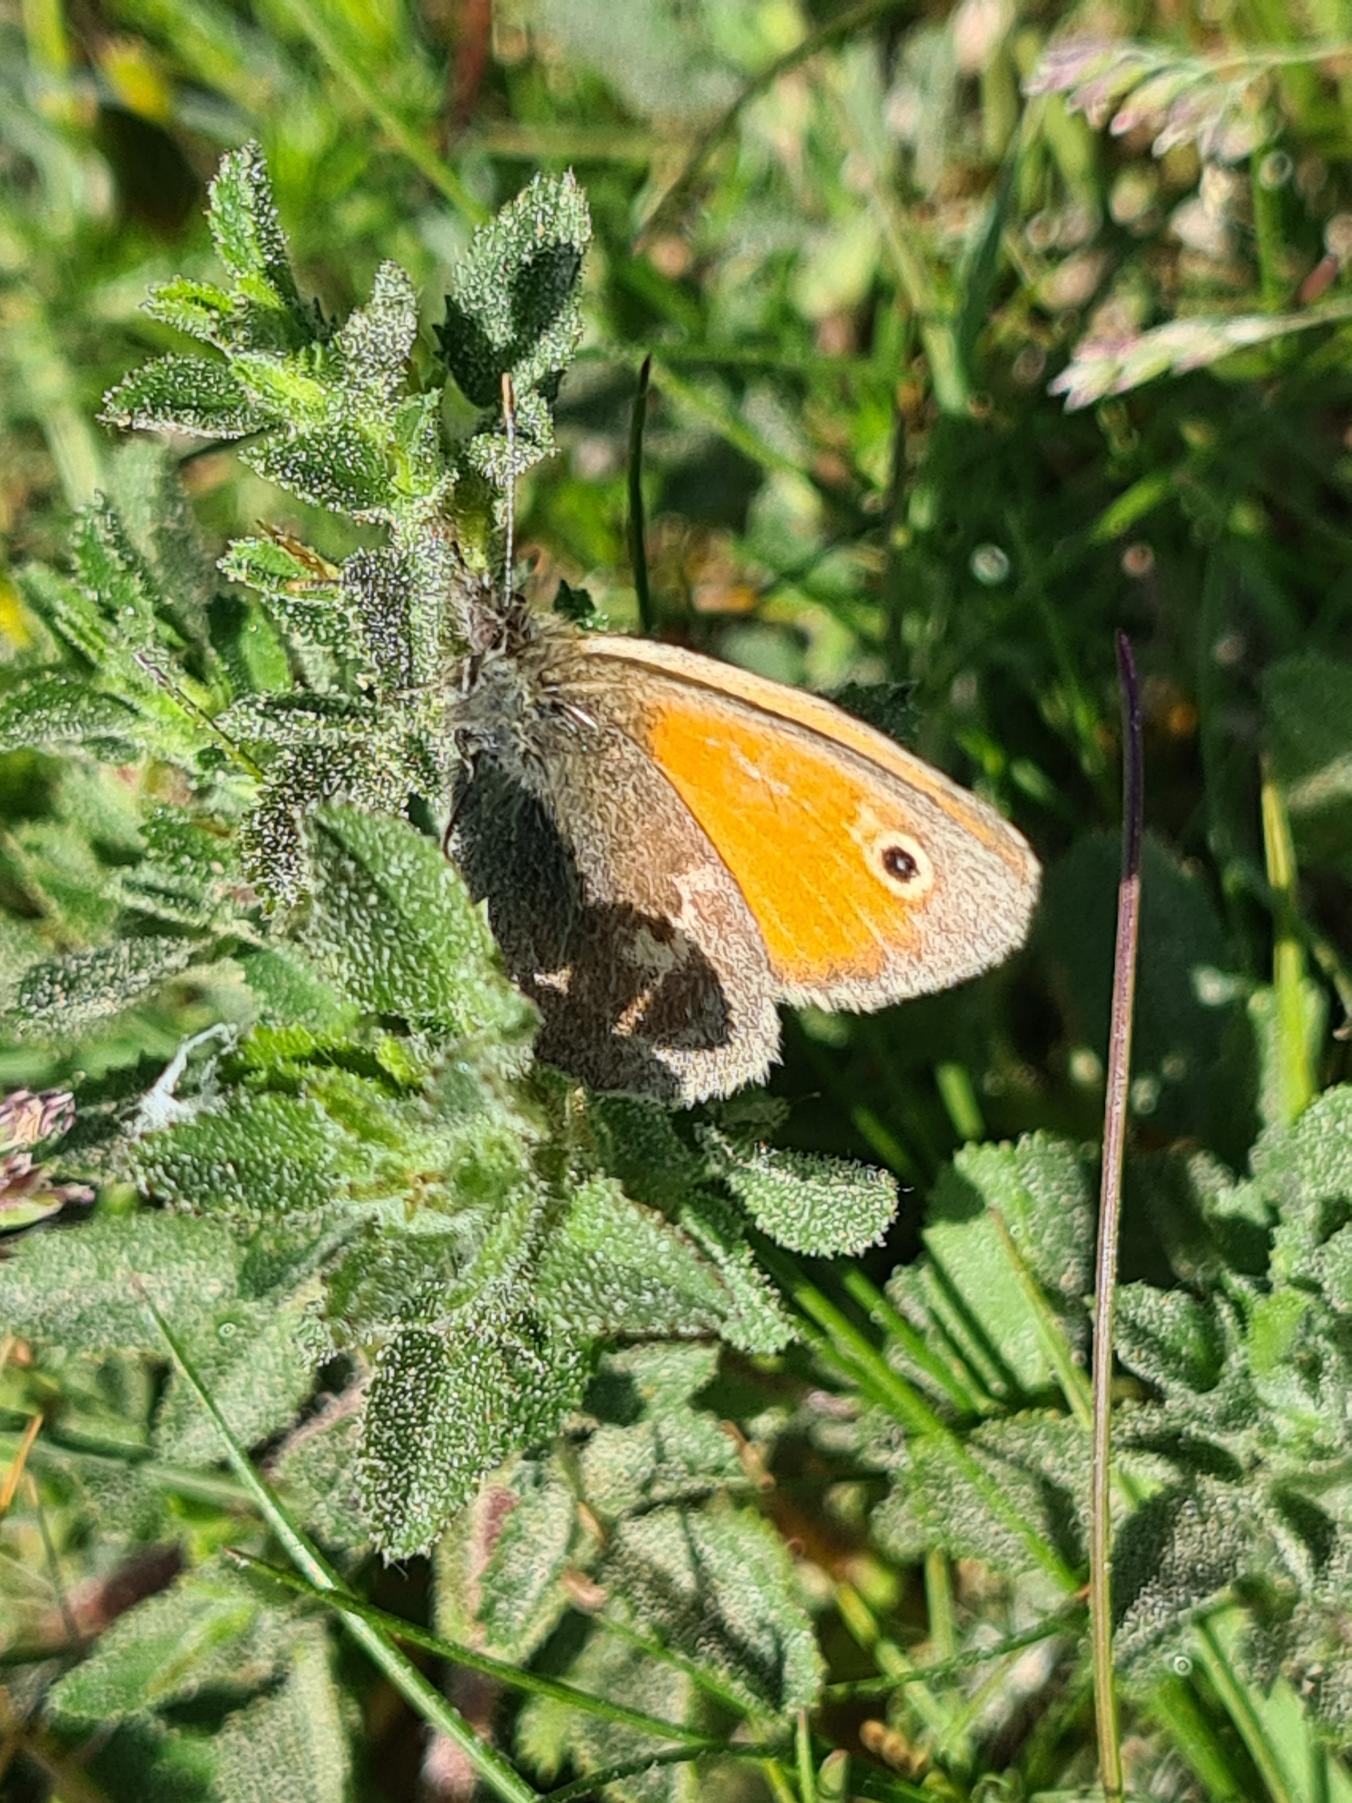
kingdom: Animalia
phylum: Arthropoda
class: Insecta
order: Lepidoptera
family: Nymphalidae
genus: Coenonympha
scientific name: Coenonympha pamphilus
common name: Okkergul randøje
